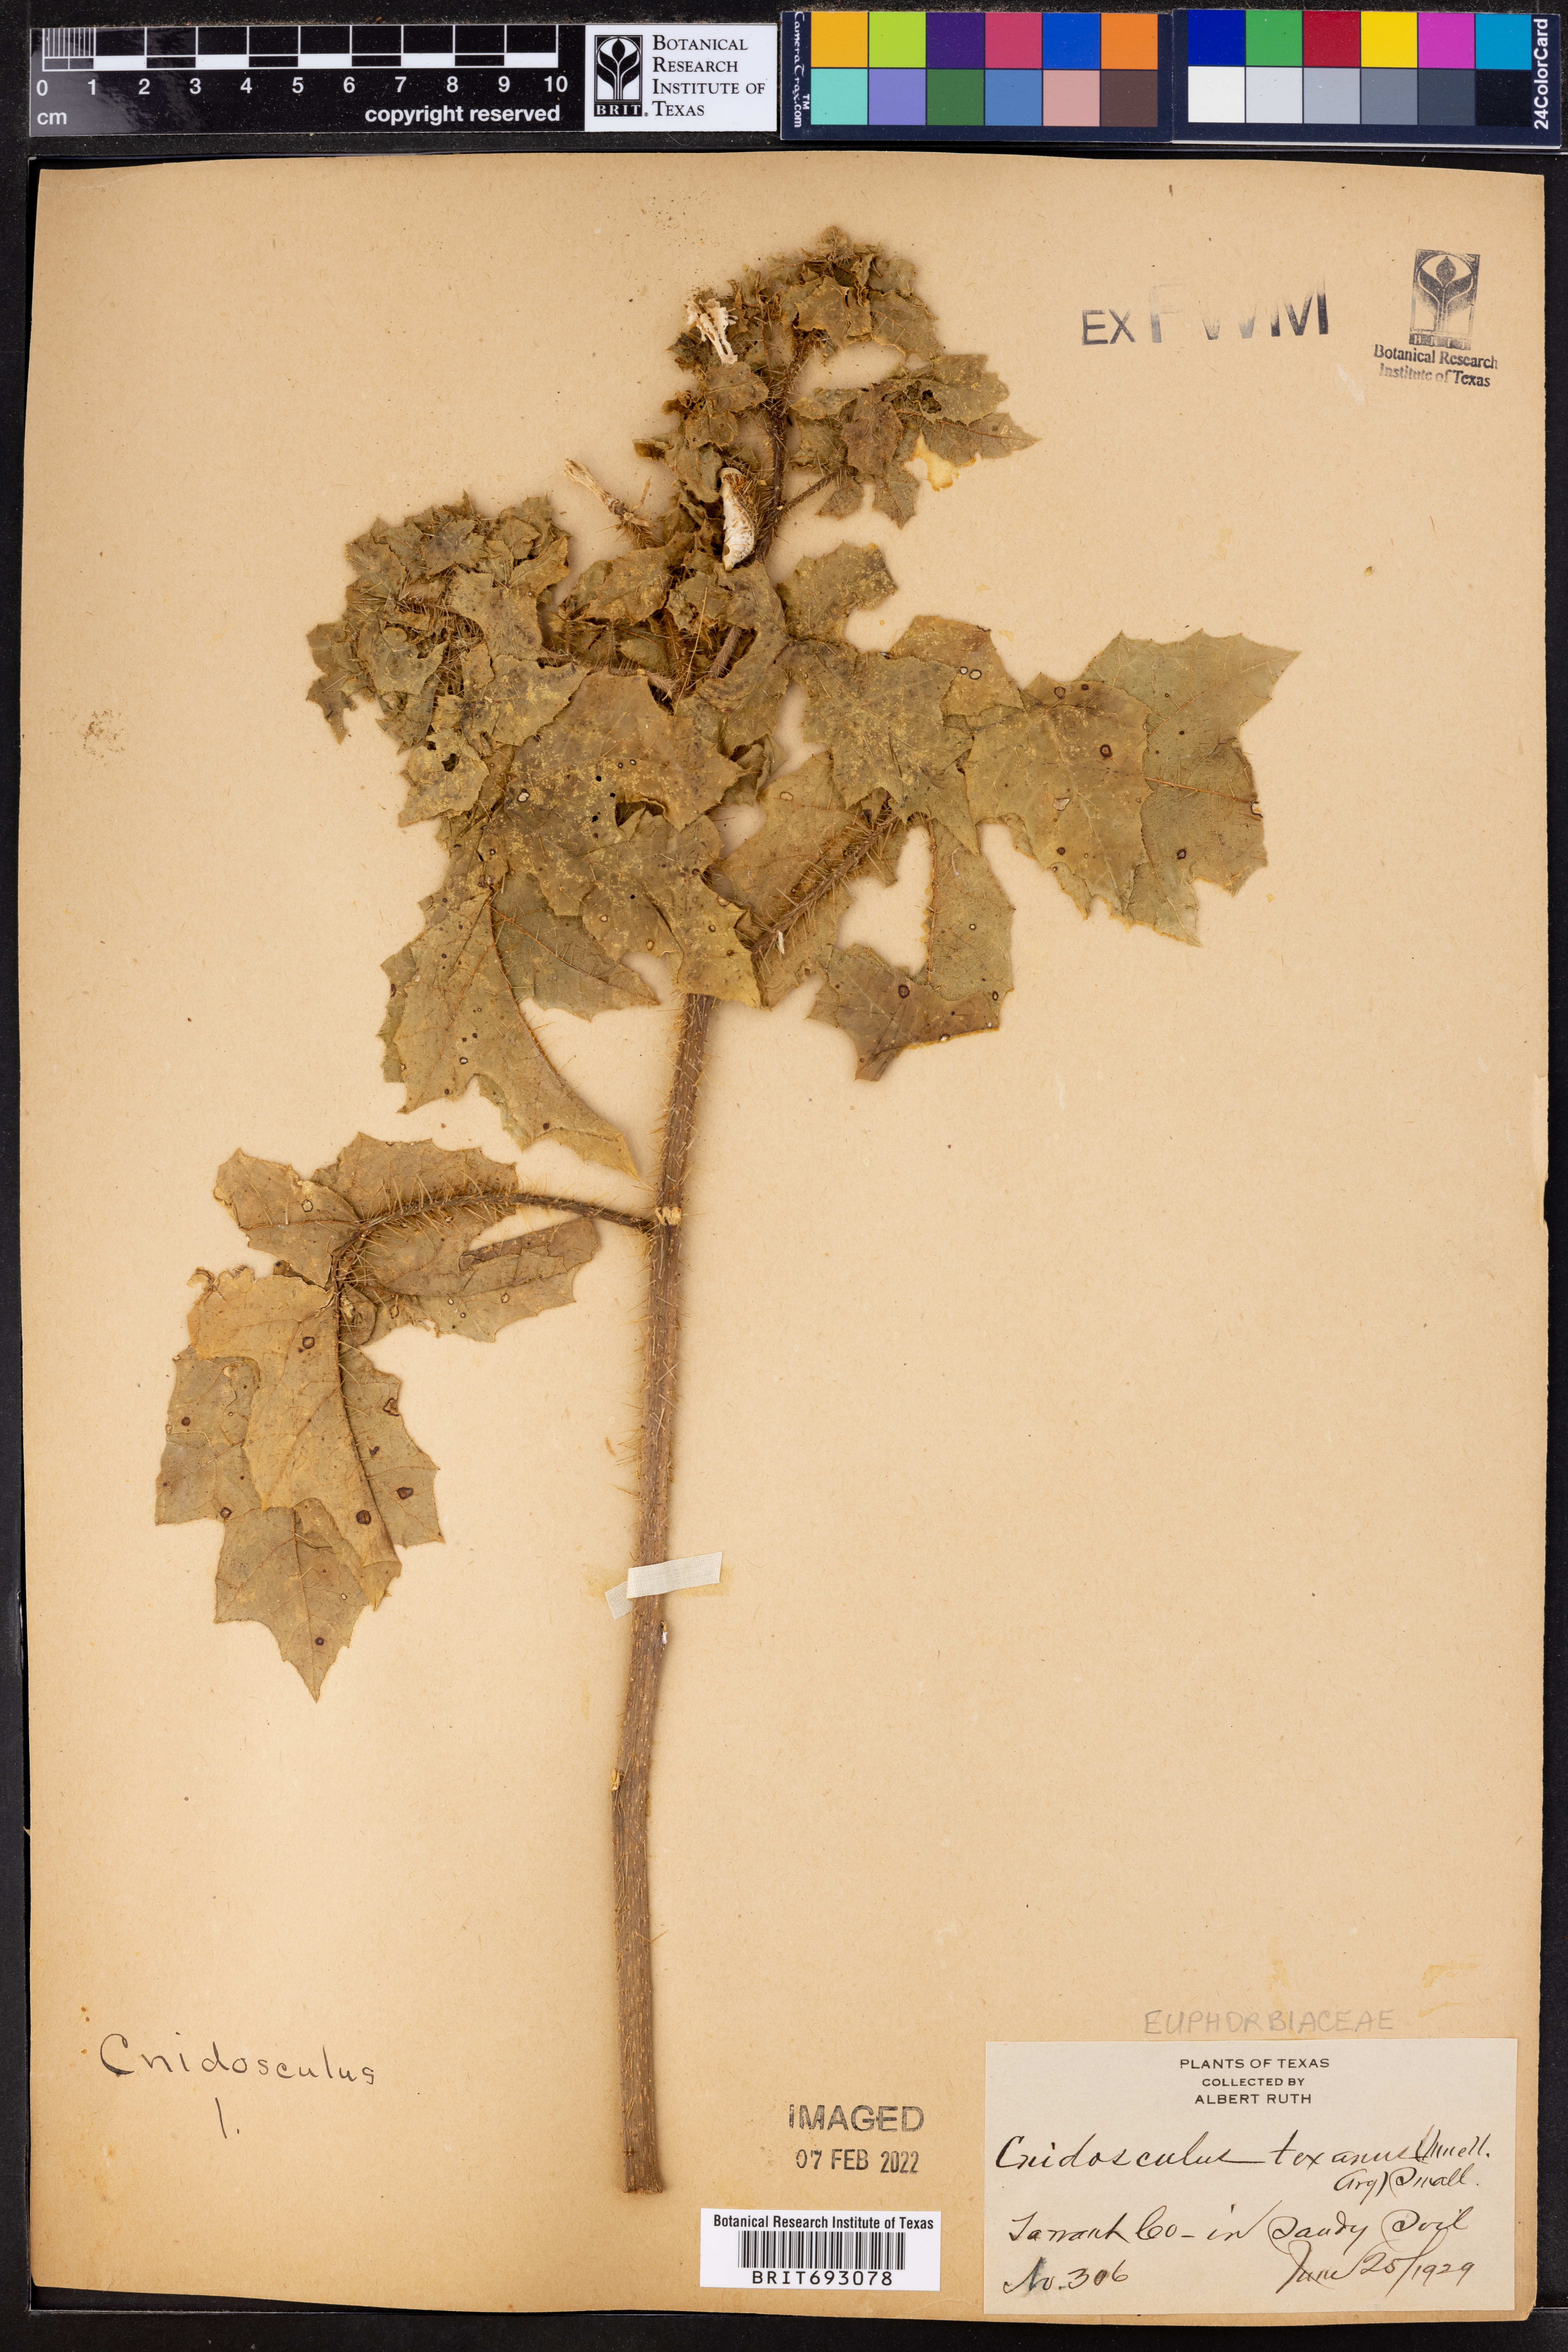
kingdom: Plantae
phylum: Tracheophyta
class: Magnoliopsida
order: Malpighiales
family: Euphorbiaceae
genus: Cnidoscolus
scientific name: Cnidoscolus texanus
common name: Texas bull-nettle
